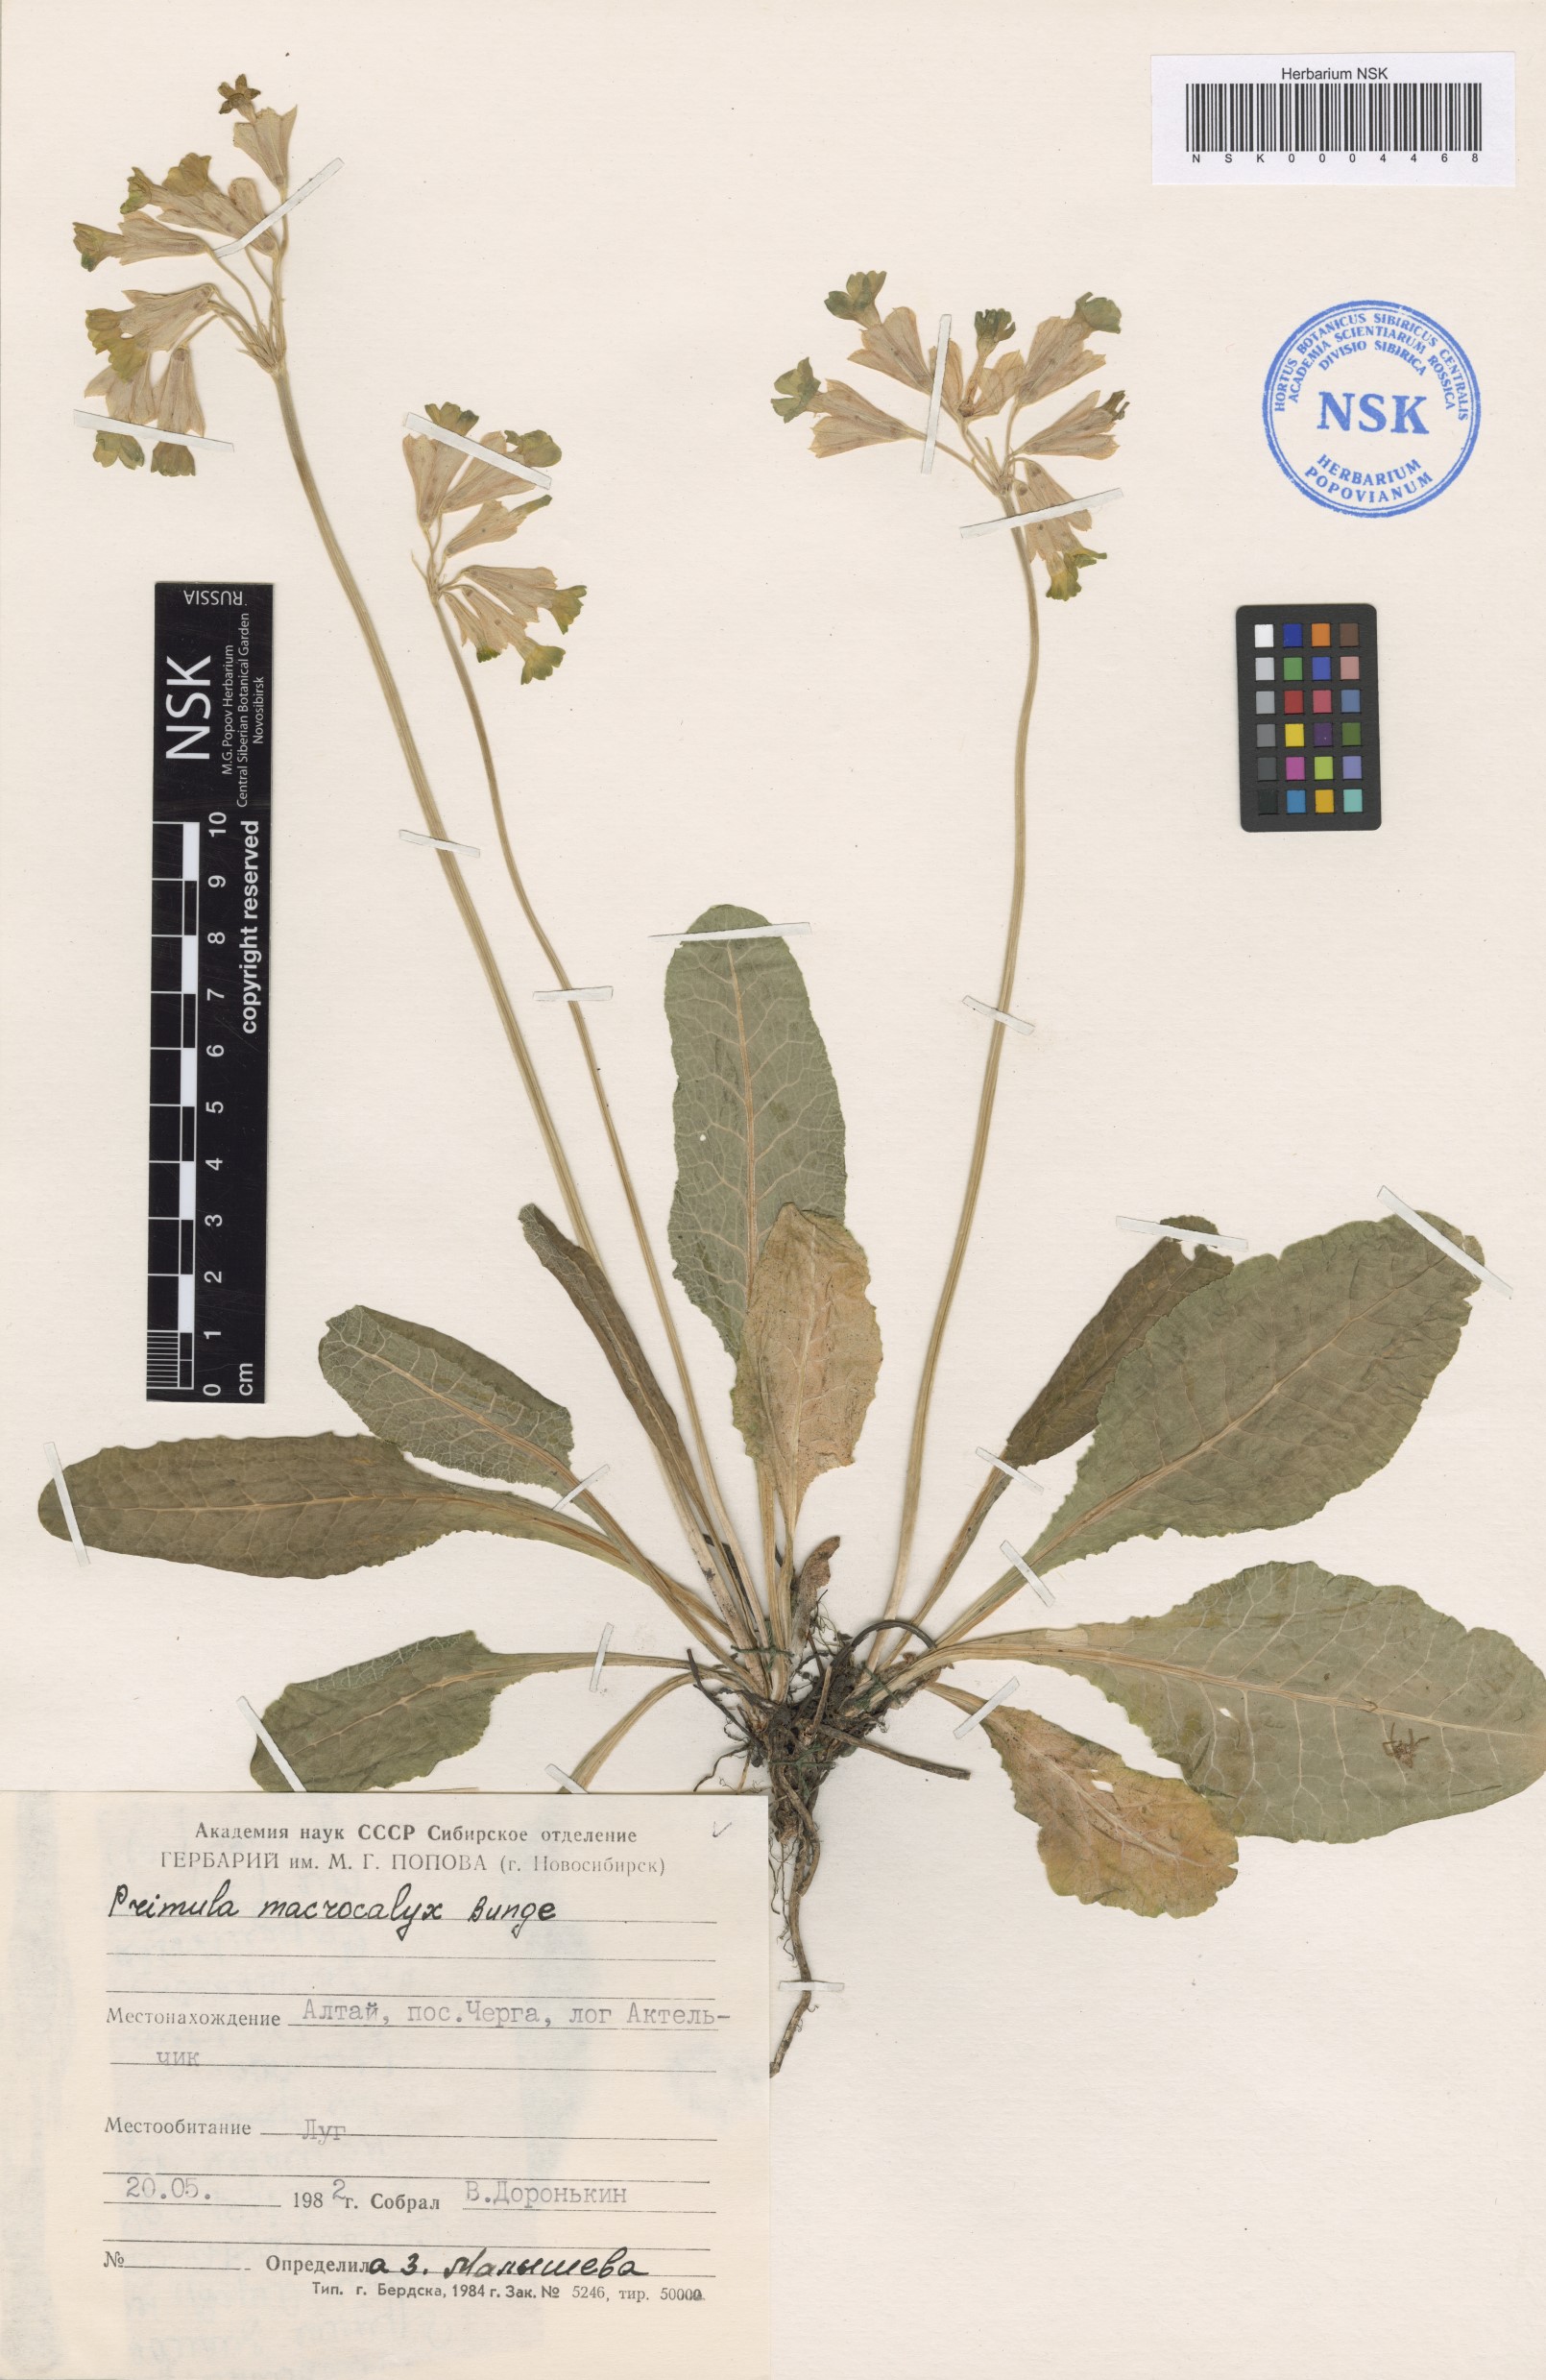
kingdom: Plantae
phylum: Tracheophyta
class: Magnoliopsida
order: Ericales
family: Primulaceae
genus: Primula
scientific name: Primula veris
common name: Cowslip
